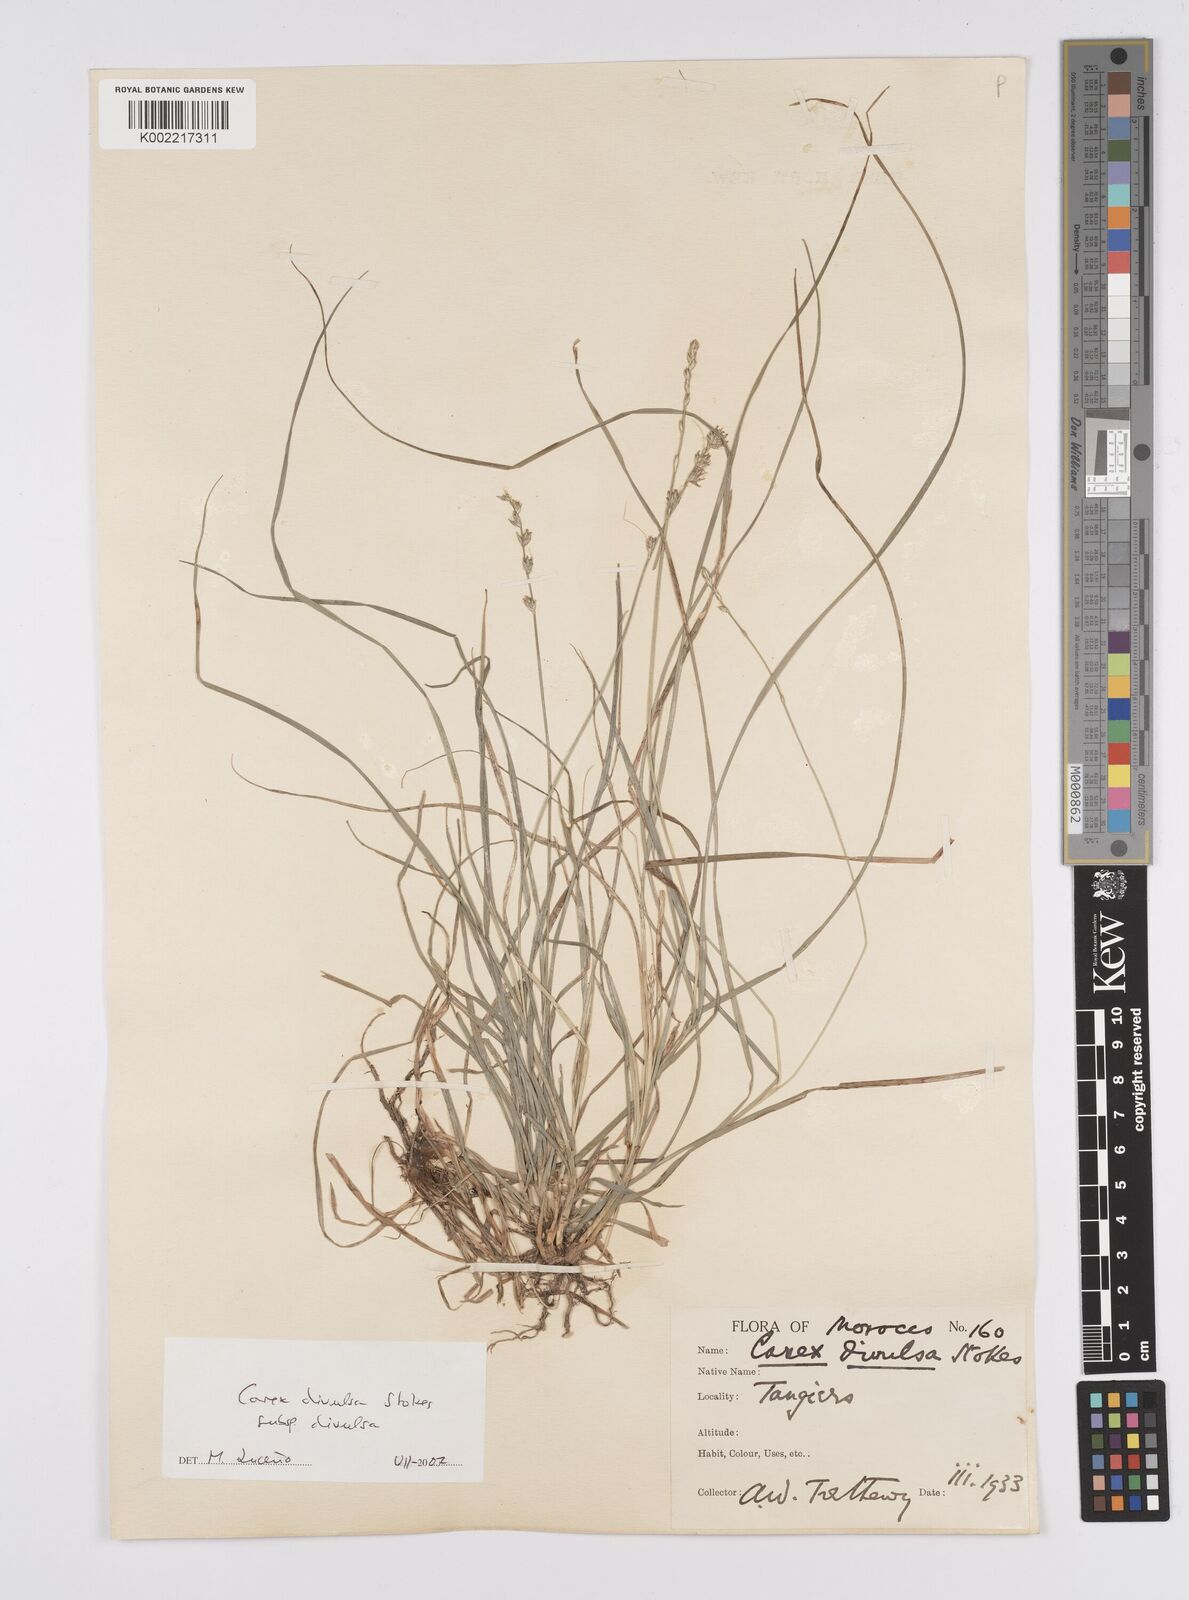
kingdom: Plantae
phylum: Tracheophyta
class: Liliopsida
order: Poales
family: Cyperaceae
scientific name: Cyperaceae
